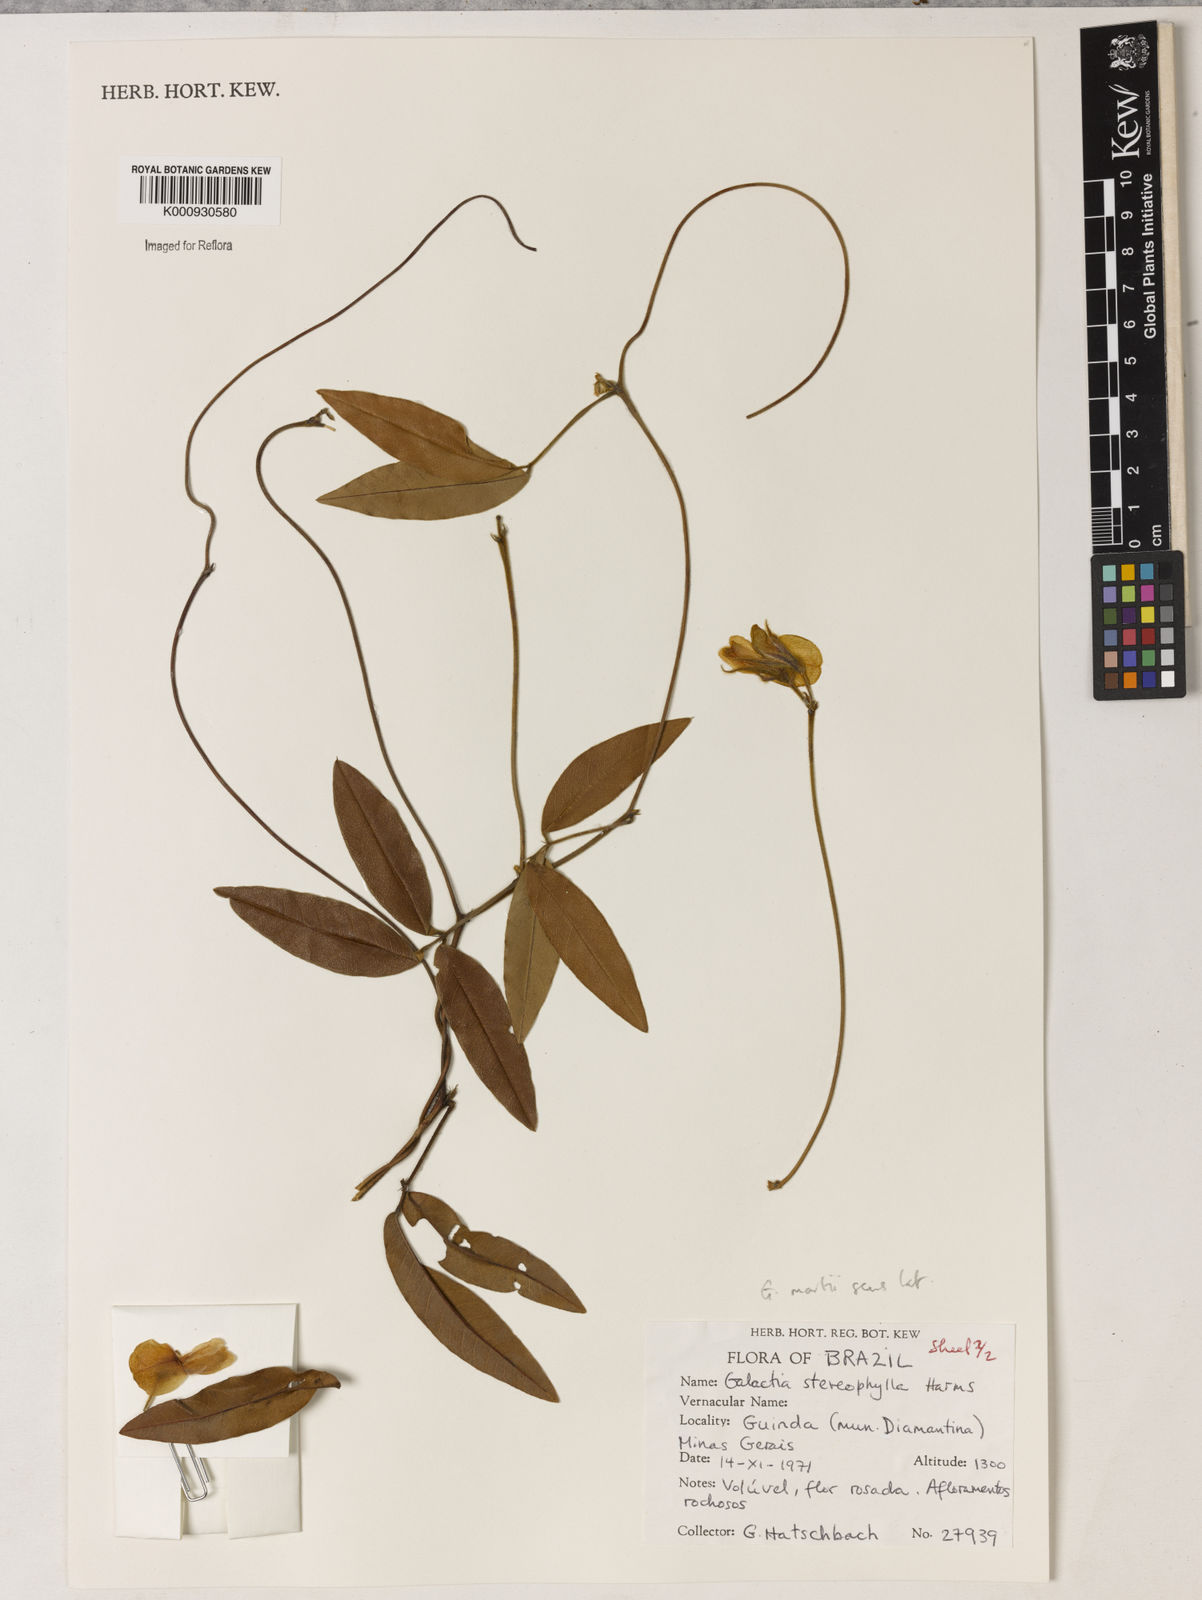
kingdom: Plantae
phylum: Tracheophyta
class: Magnoliopsida
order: Fabales
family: Fabaceae
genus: Betencourtia
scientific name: Betencourtia neesii
